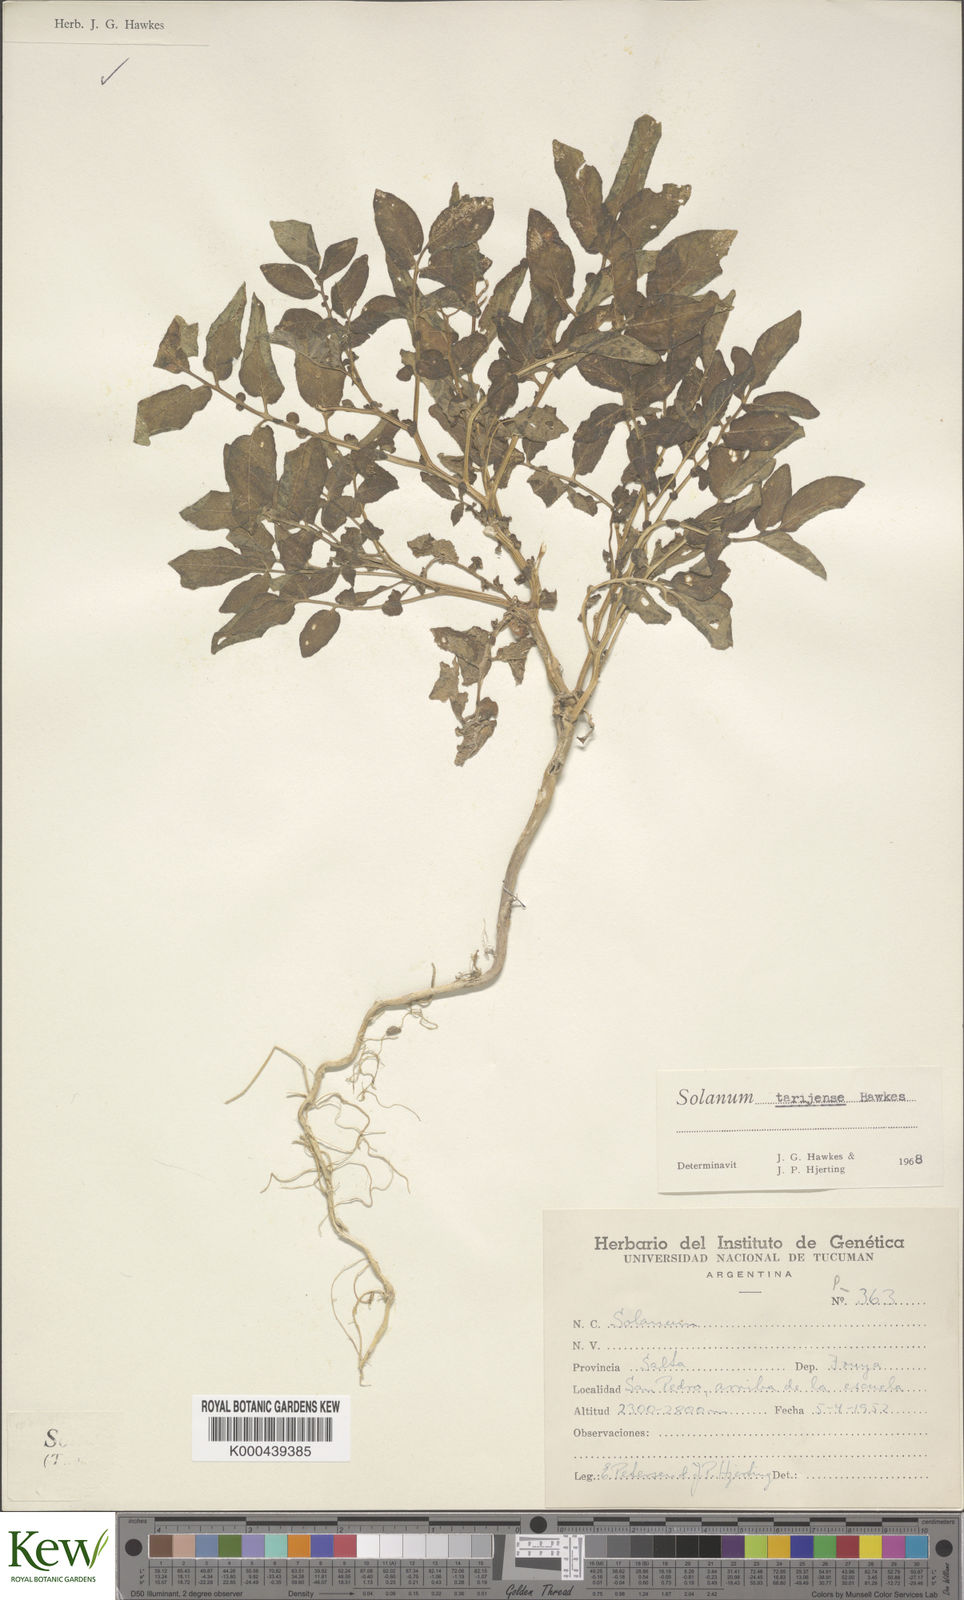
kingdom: Plantae
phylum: Tracheophyta
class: Magnoliopsida
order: Solanales
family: Solanaceae
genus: Solanum
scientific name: Solanum tarijense
